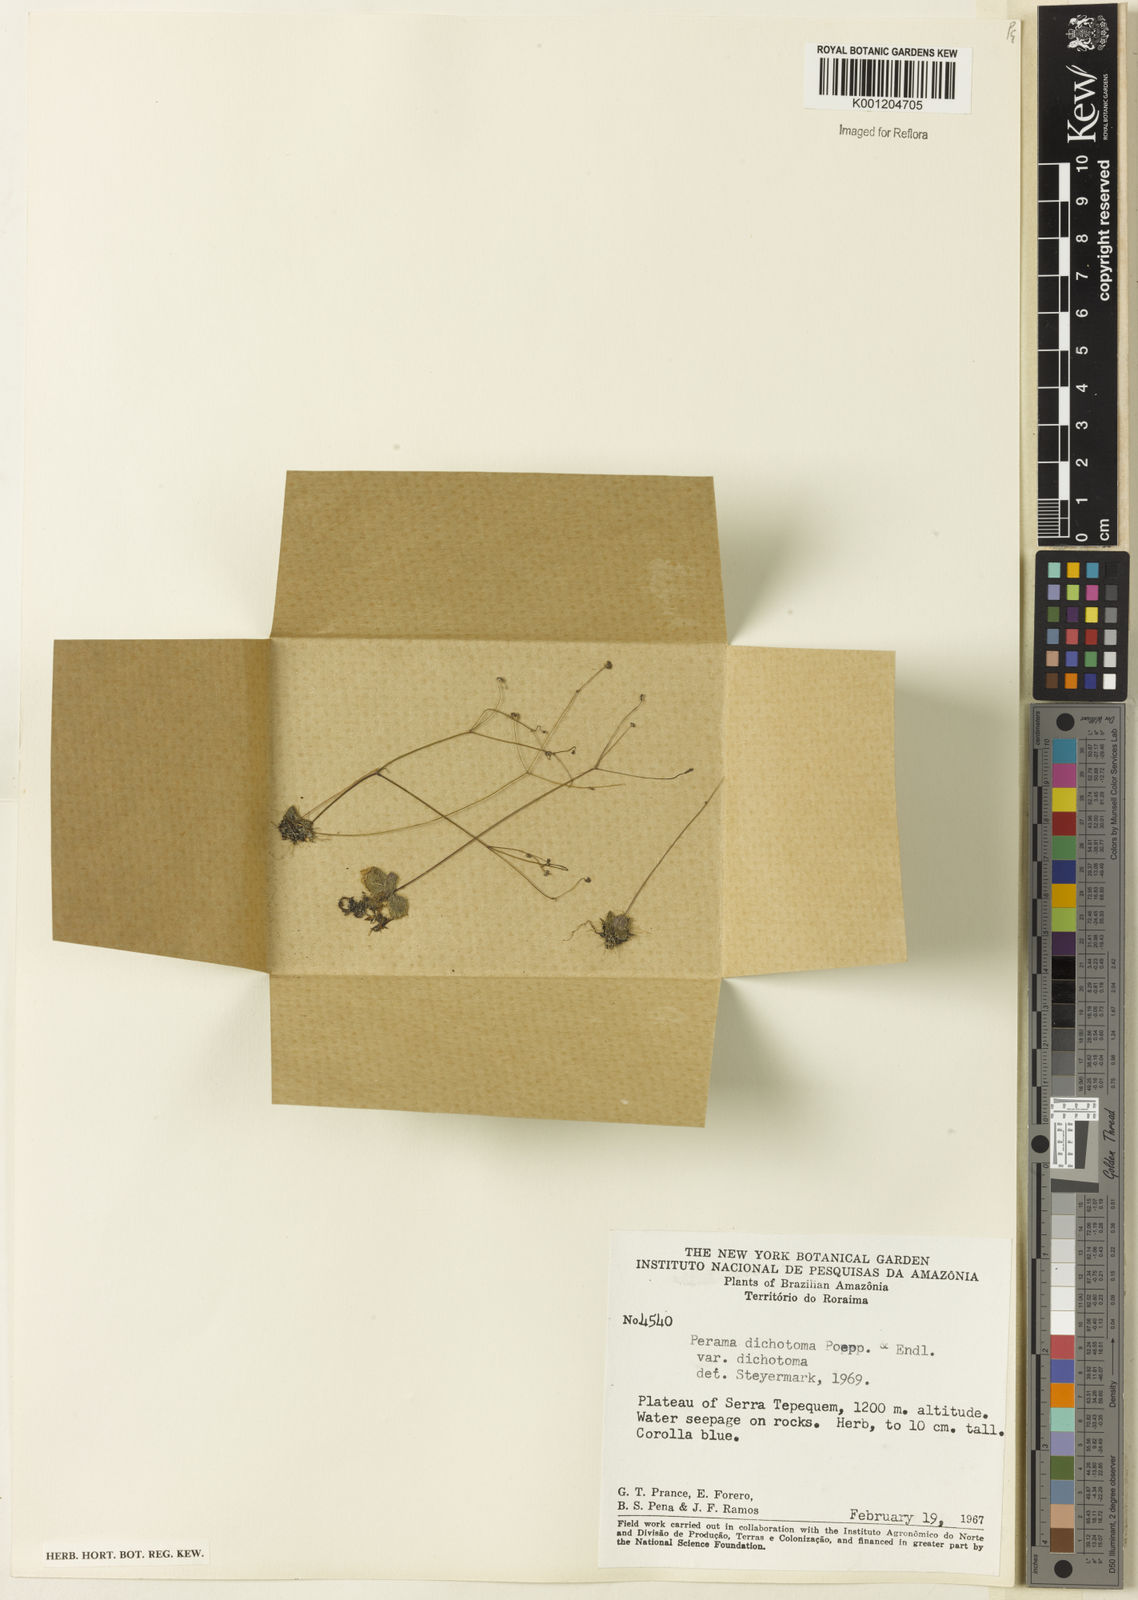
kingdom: Plantae
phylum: Tracheophyta
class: Magnoliopsida
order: Gentianales
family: Rubiaceae
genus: Perama
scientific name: Perama dichotoma
